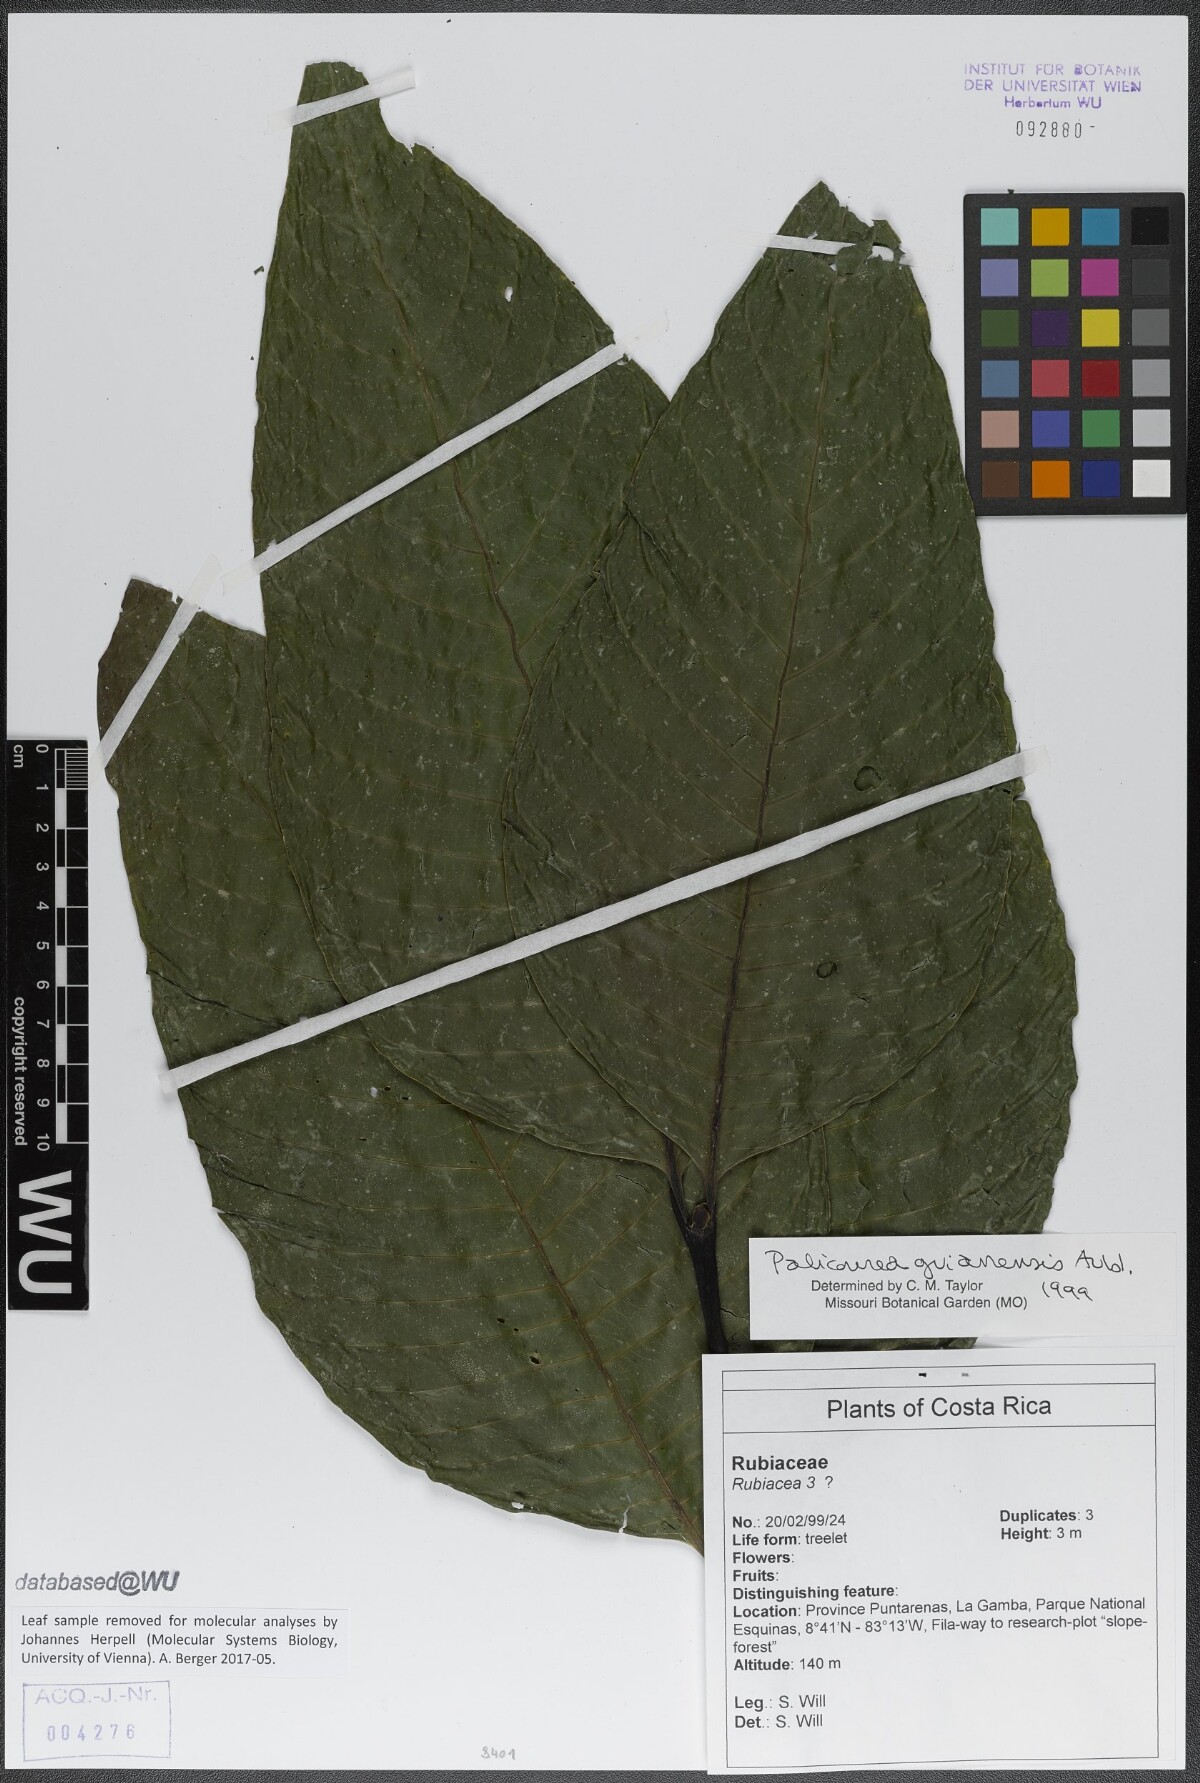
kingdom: Plantae
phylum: Tracheophyta
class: Magnoliopsida
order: Gentianales
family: Rubiaceae
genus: Palicourea
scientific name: Palicourea guianensis
